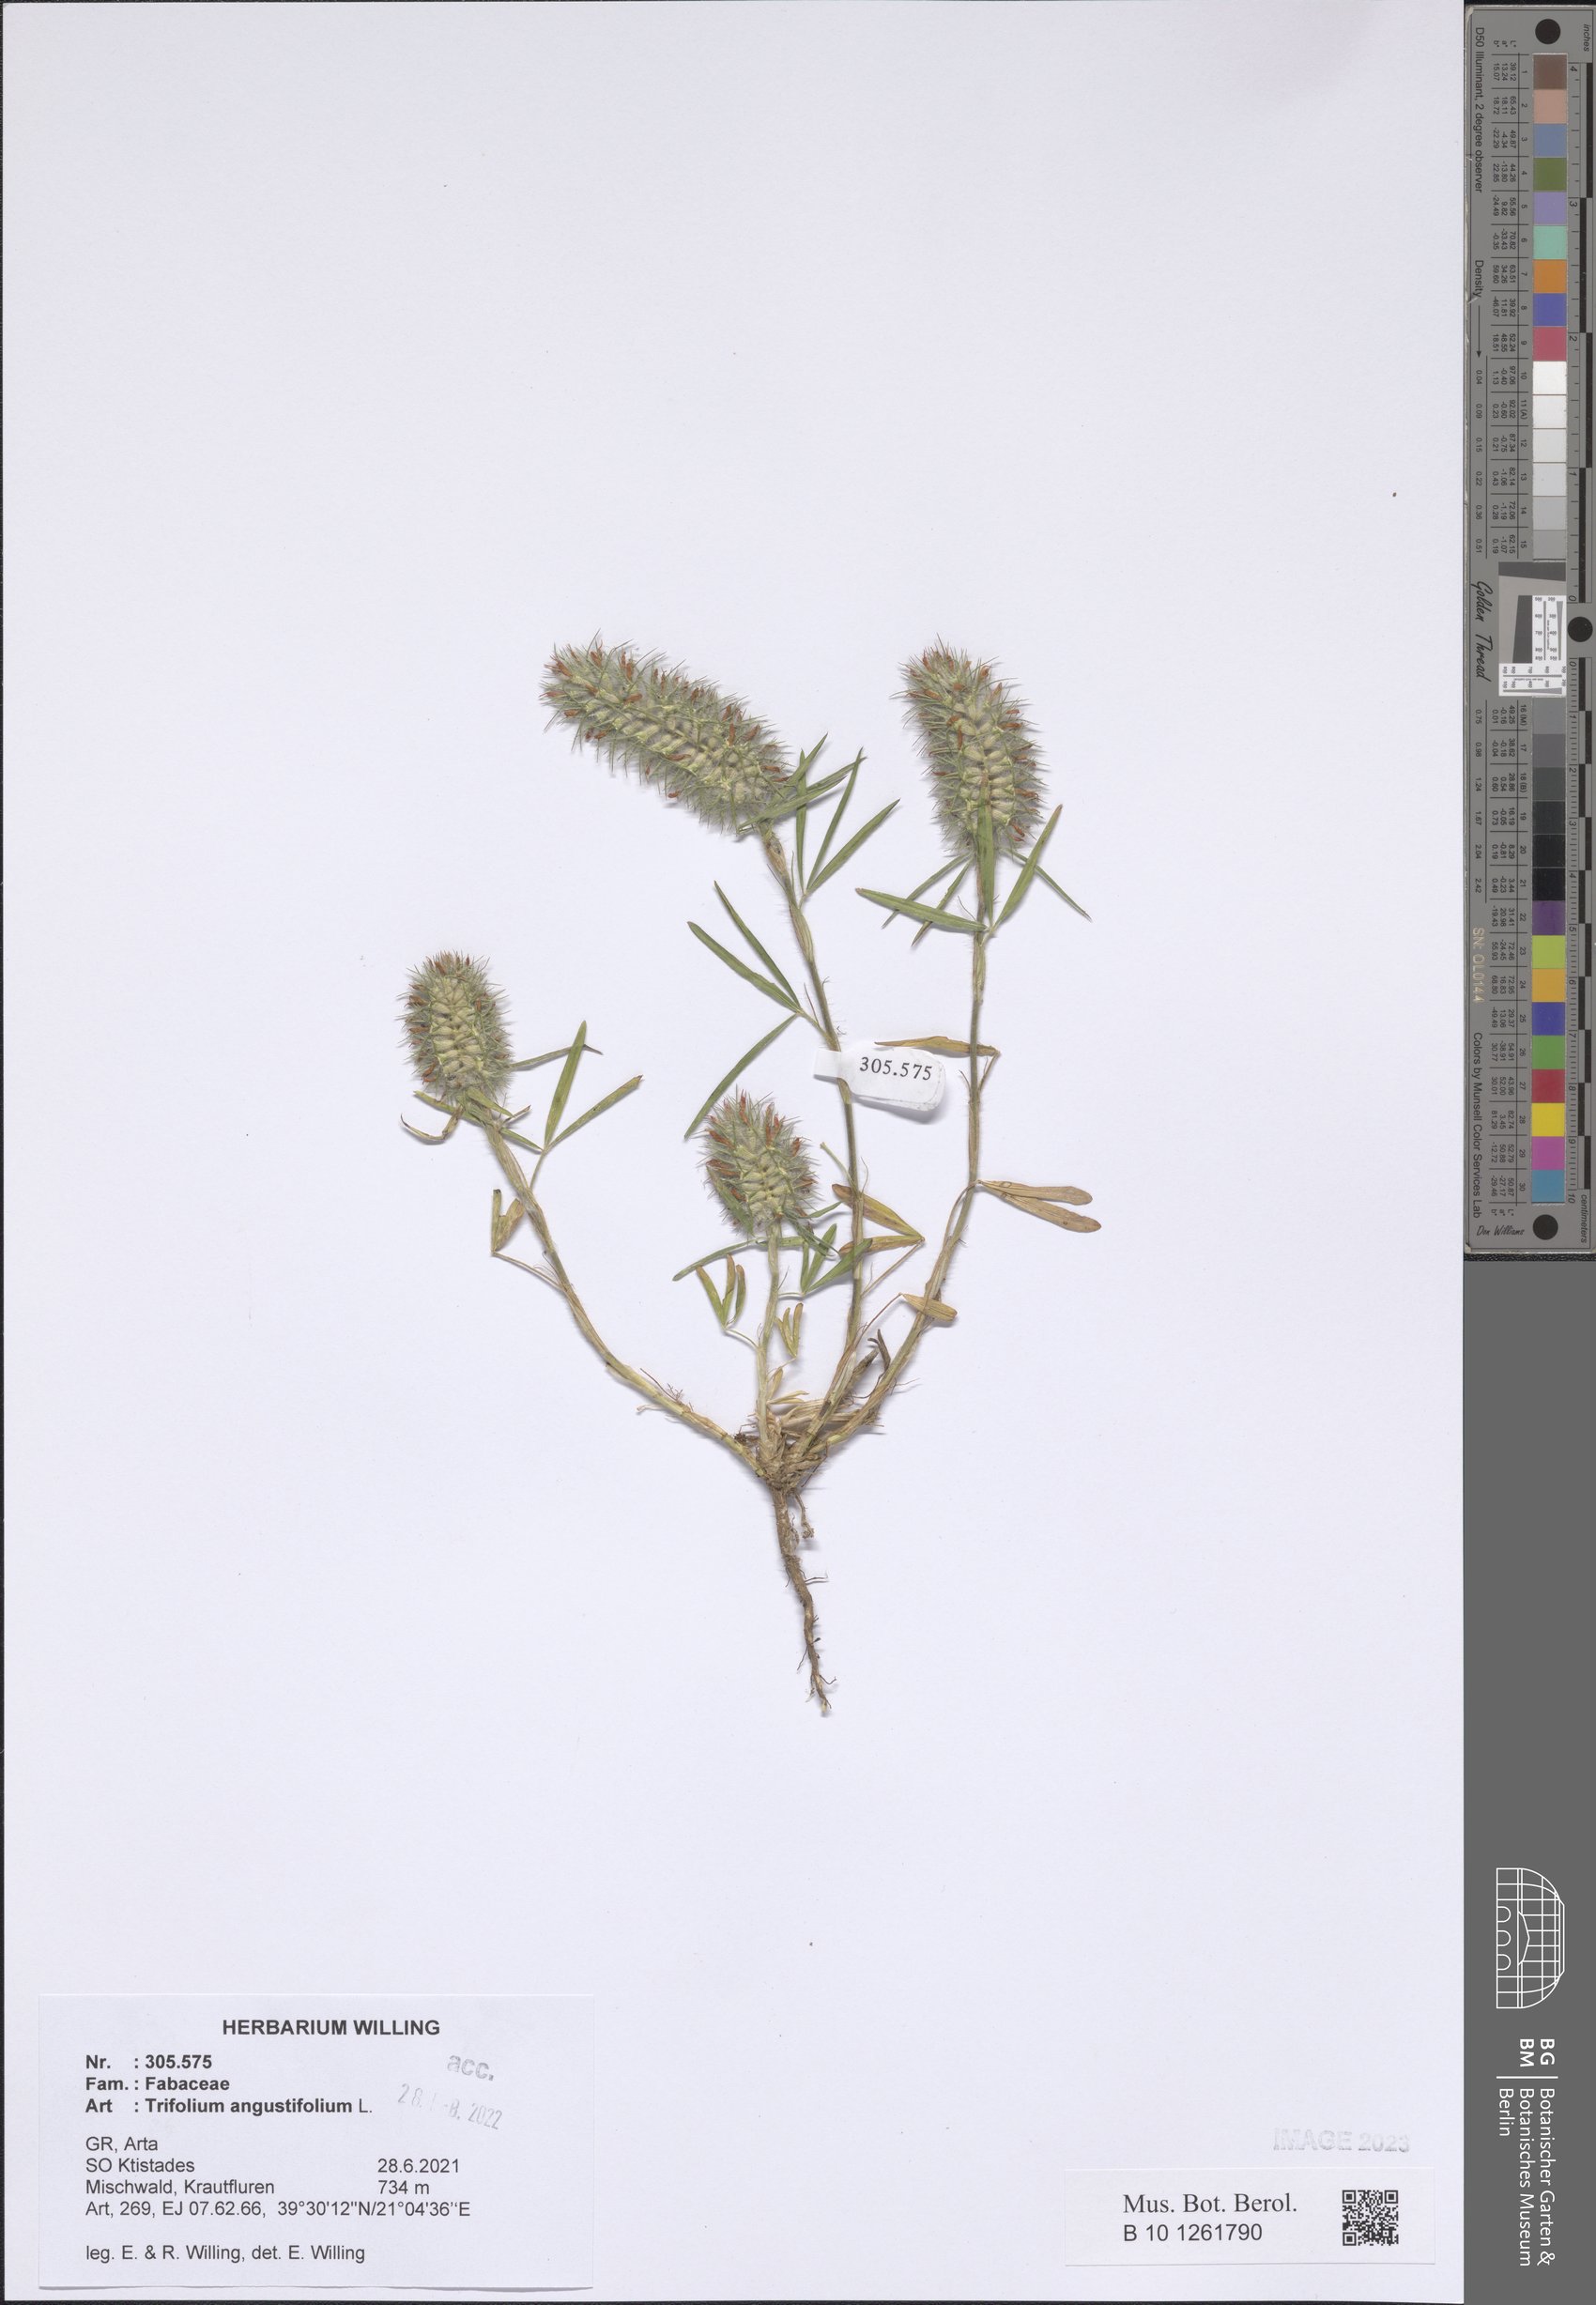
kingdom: Plantae
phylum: Tracheophyta
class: Magnoliopsida
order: Fabales
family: Fabaceae
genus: Trifolium
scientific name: Trifolium angustifolium
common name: Narrow clover
